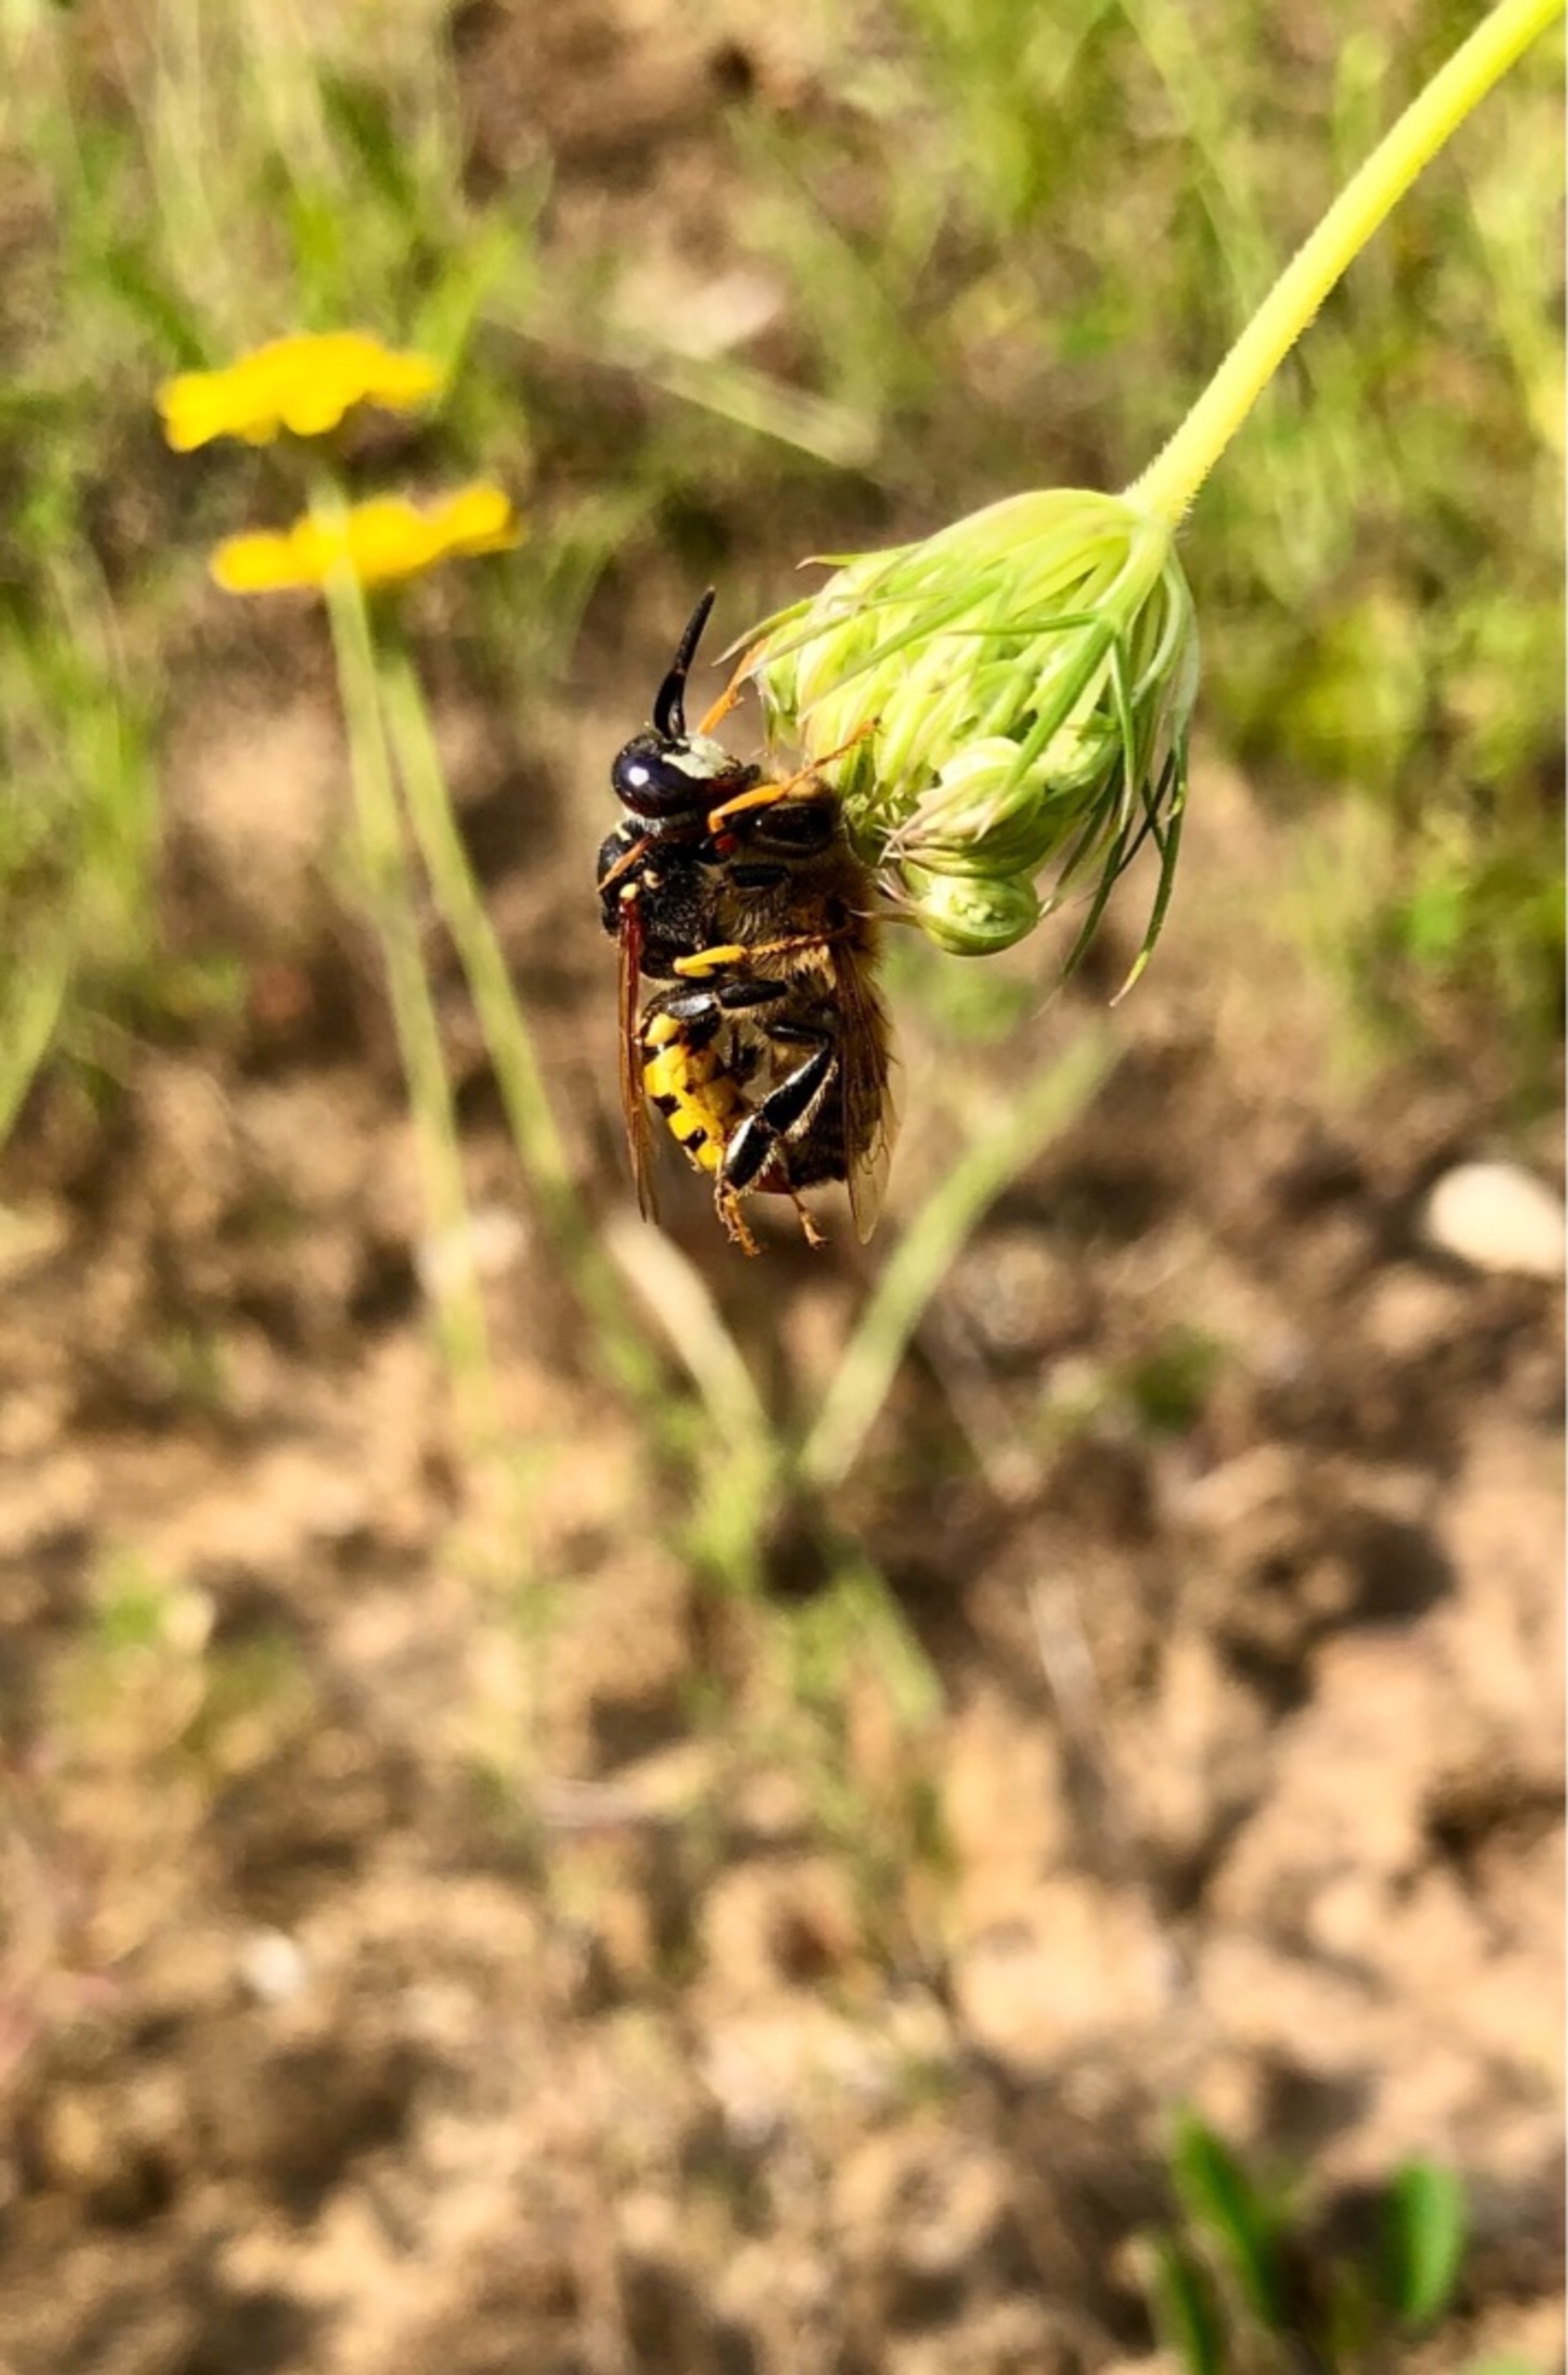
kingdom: Animalia
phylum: Arthropoda
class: Insecta
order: Hymenoptera
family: Crabronidae
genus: Philanthus
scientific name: Philanthus triangulum
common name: Biulv
